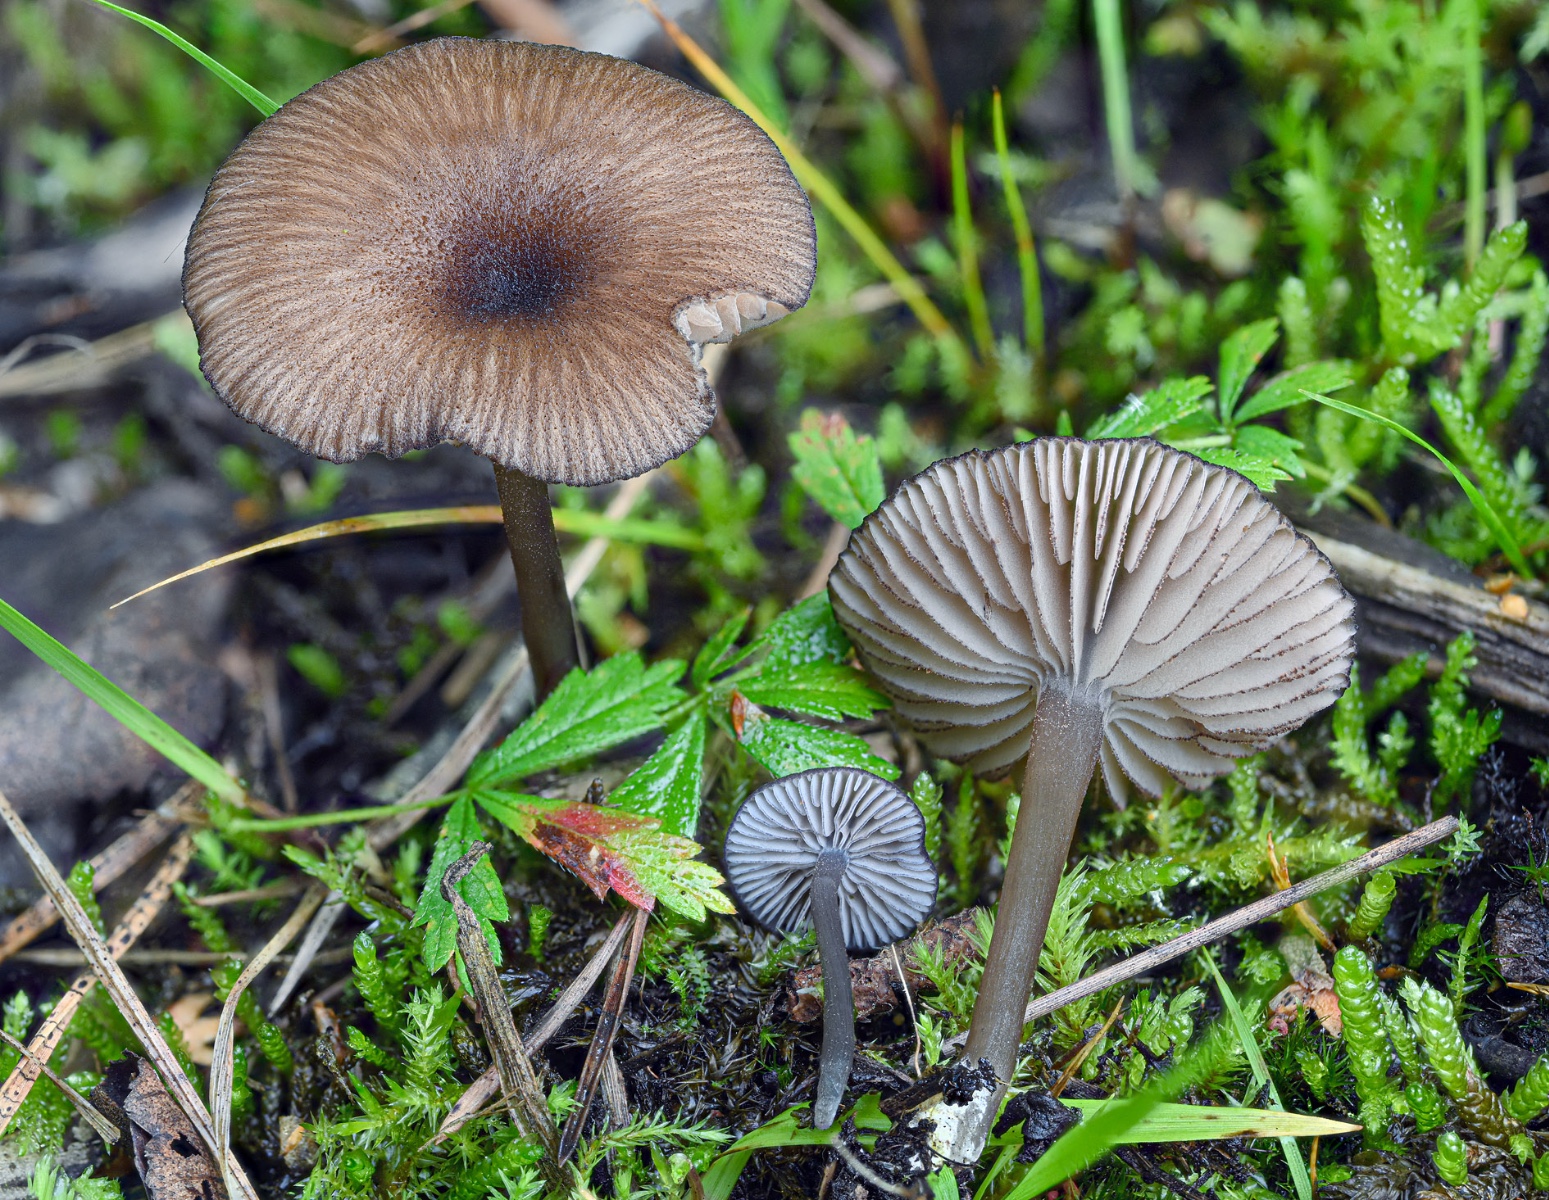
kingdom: Fungi
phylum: Basidiomycota
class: Agaricomycetes
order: Agaricales
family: Entolomataceae
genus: Entoloma
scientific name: Entoloma caesiocinctum
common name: Blue-girdled pinkgill
